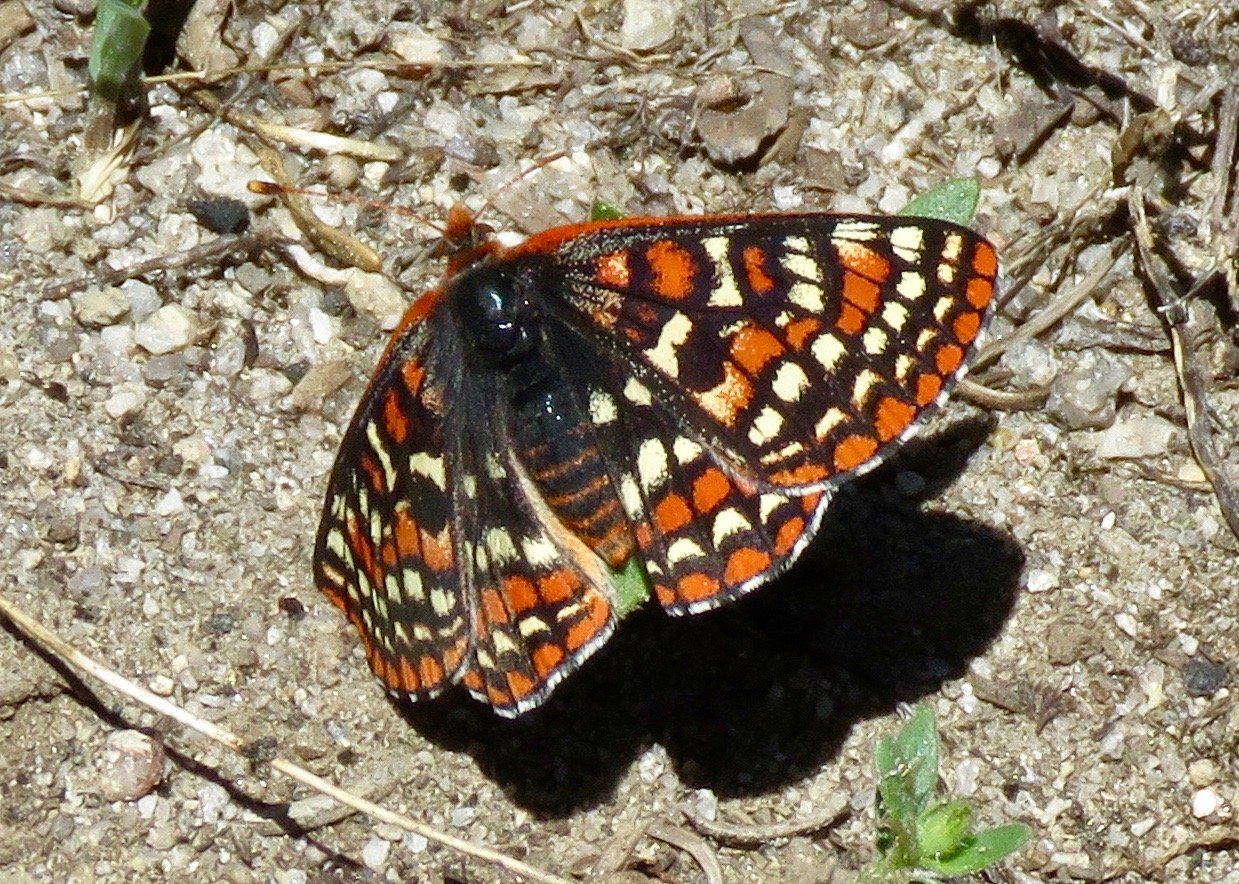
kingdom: Animalia
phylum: Arthropoda
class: Insecta
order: Lepidoptera
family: Nymphalidae
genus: Occidryas
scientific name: Occidryas editha
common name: Edith's Checkerspot
